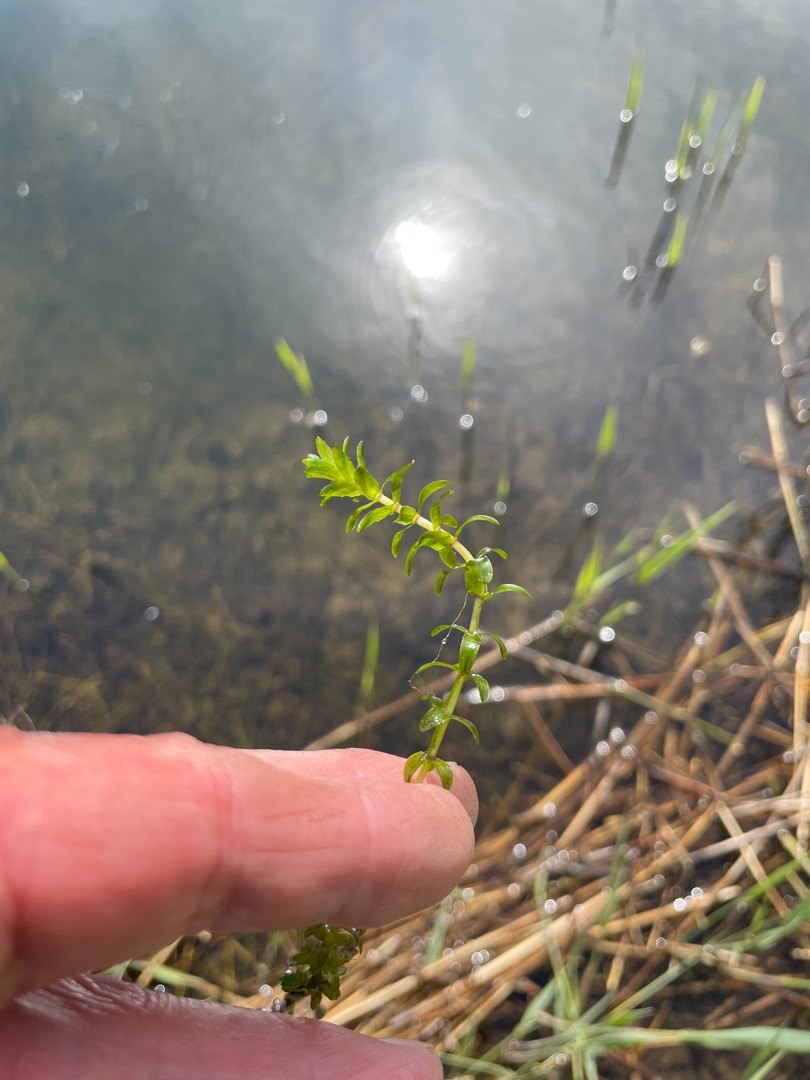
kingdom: Plantae
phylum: Tracheophyta
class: Liliopsida
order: Alismatales
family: Hydrocharitaceae
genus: Elodea
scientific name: Elodea canadensis
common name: Vandpest
